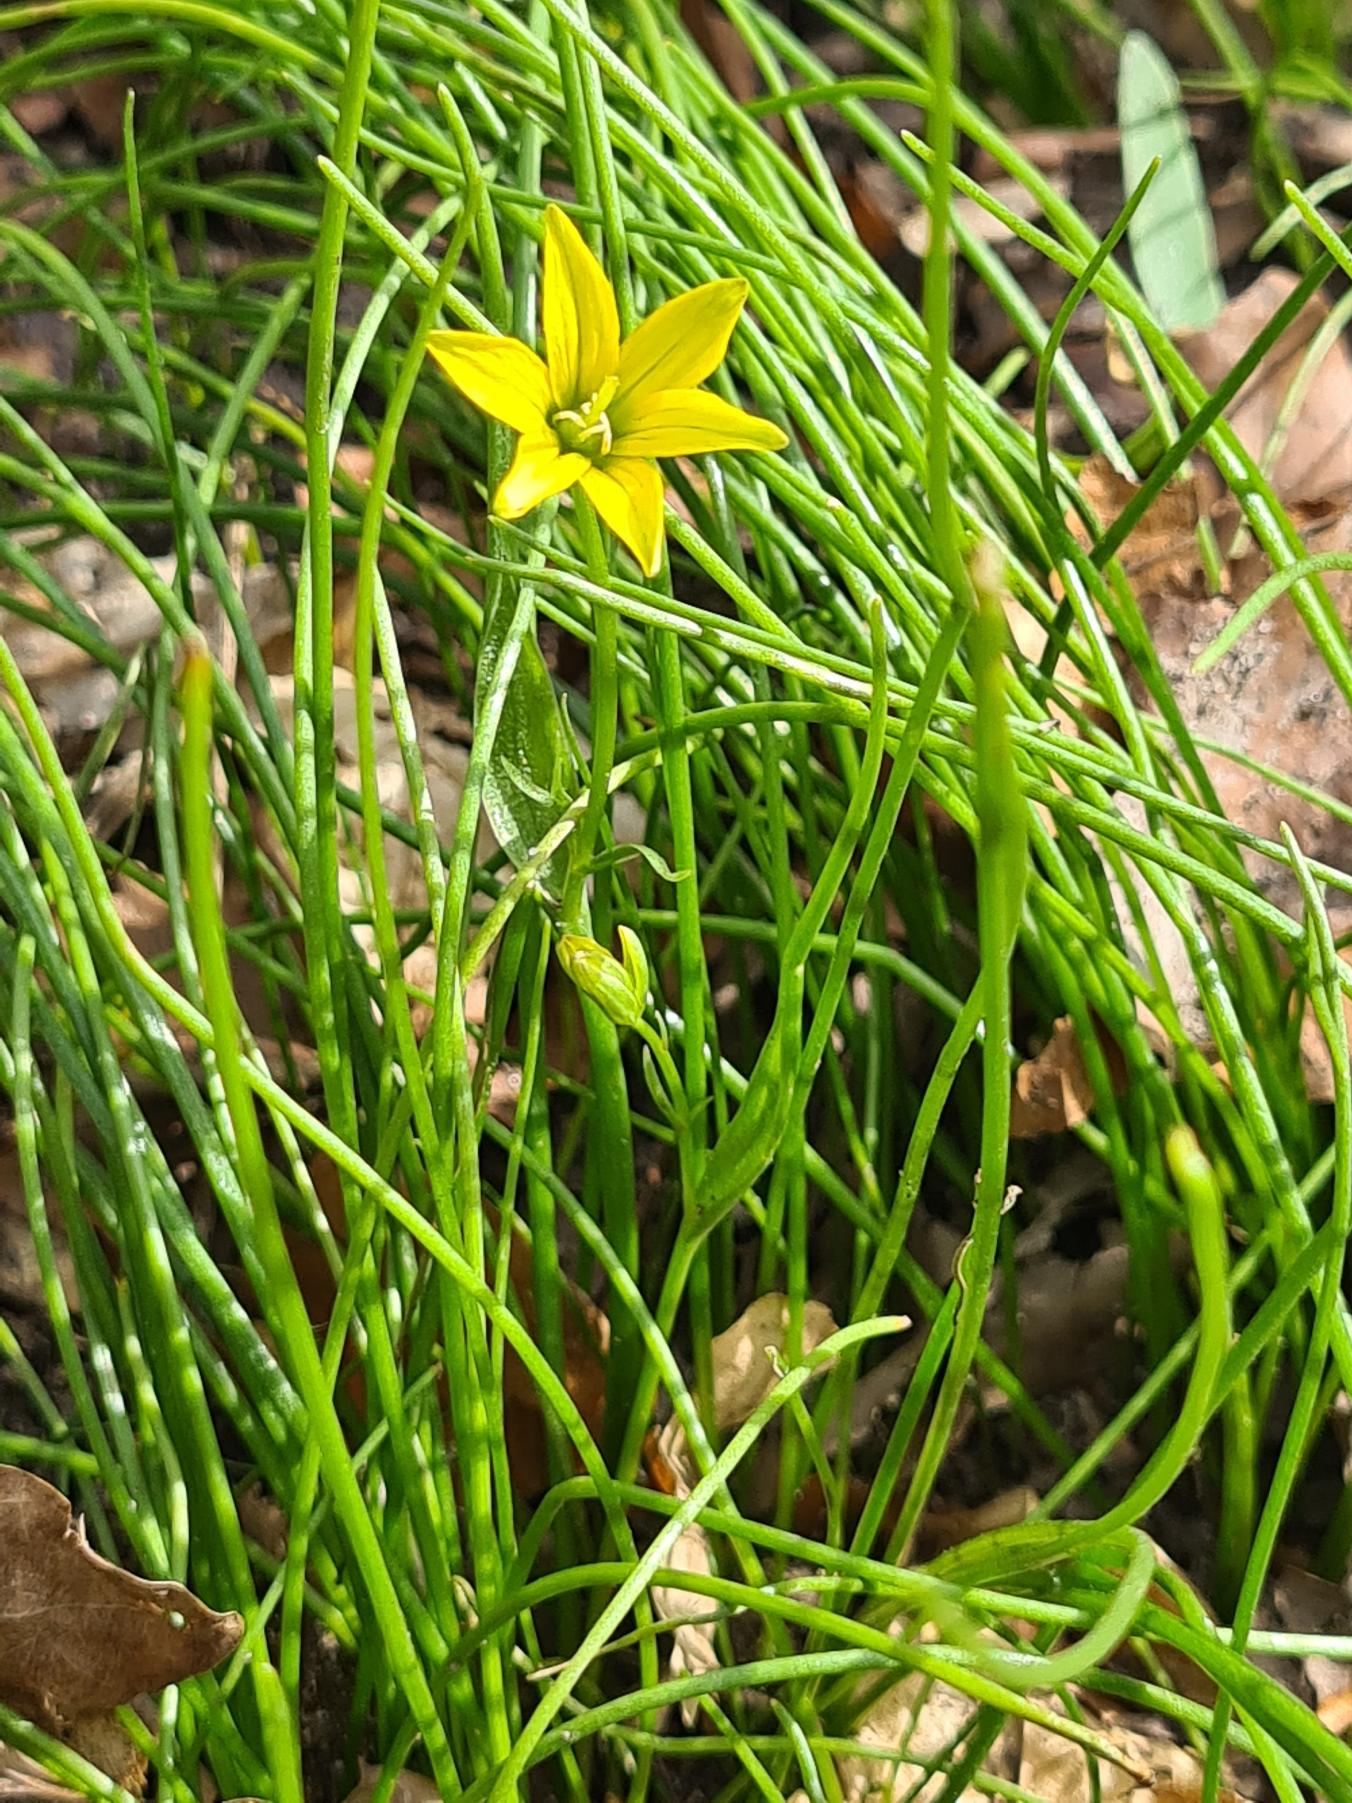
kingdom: Plantae
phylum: Tracheophyta
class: Liliopsida
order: Liliales
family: Liliaceae
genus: Gagea
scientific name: Gagea spathacea
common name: Hylster-guldstjerne
